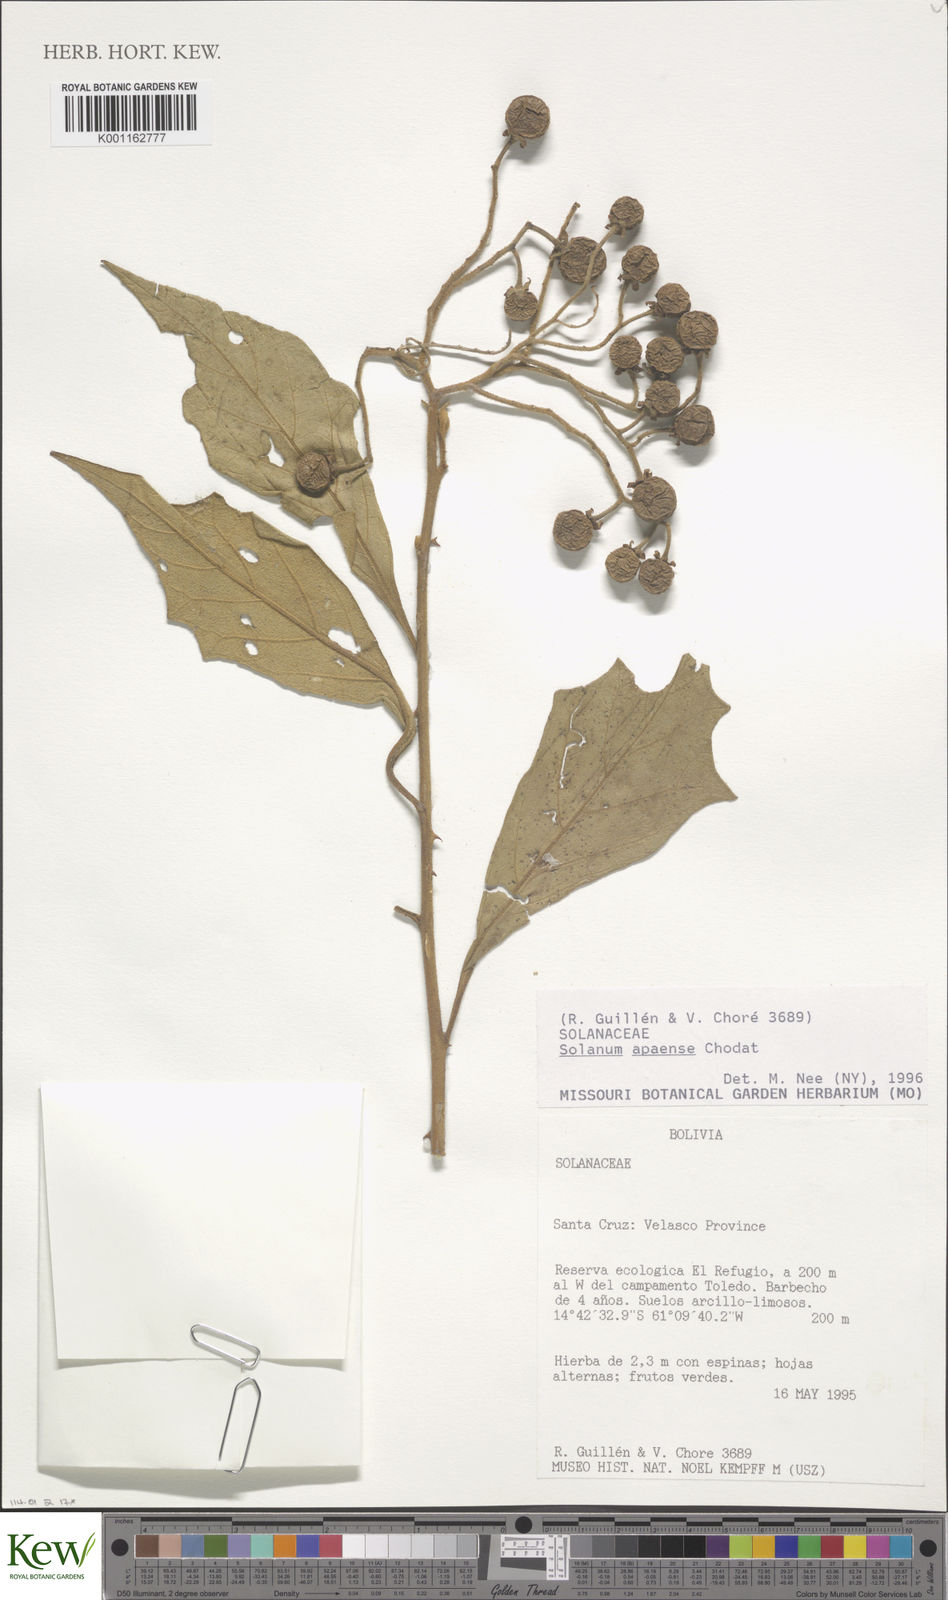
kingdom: Plantae
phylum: Tracheophyta
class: Magnoliopsida
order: Solanales
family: Solanaceae
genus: Solanum
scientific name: Solanum rhytidoandrum
